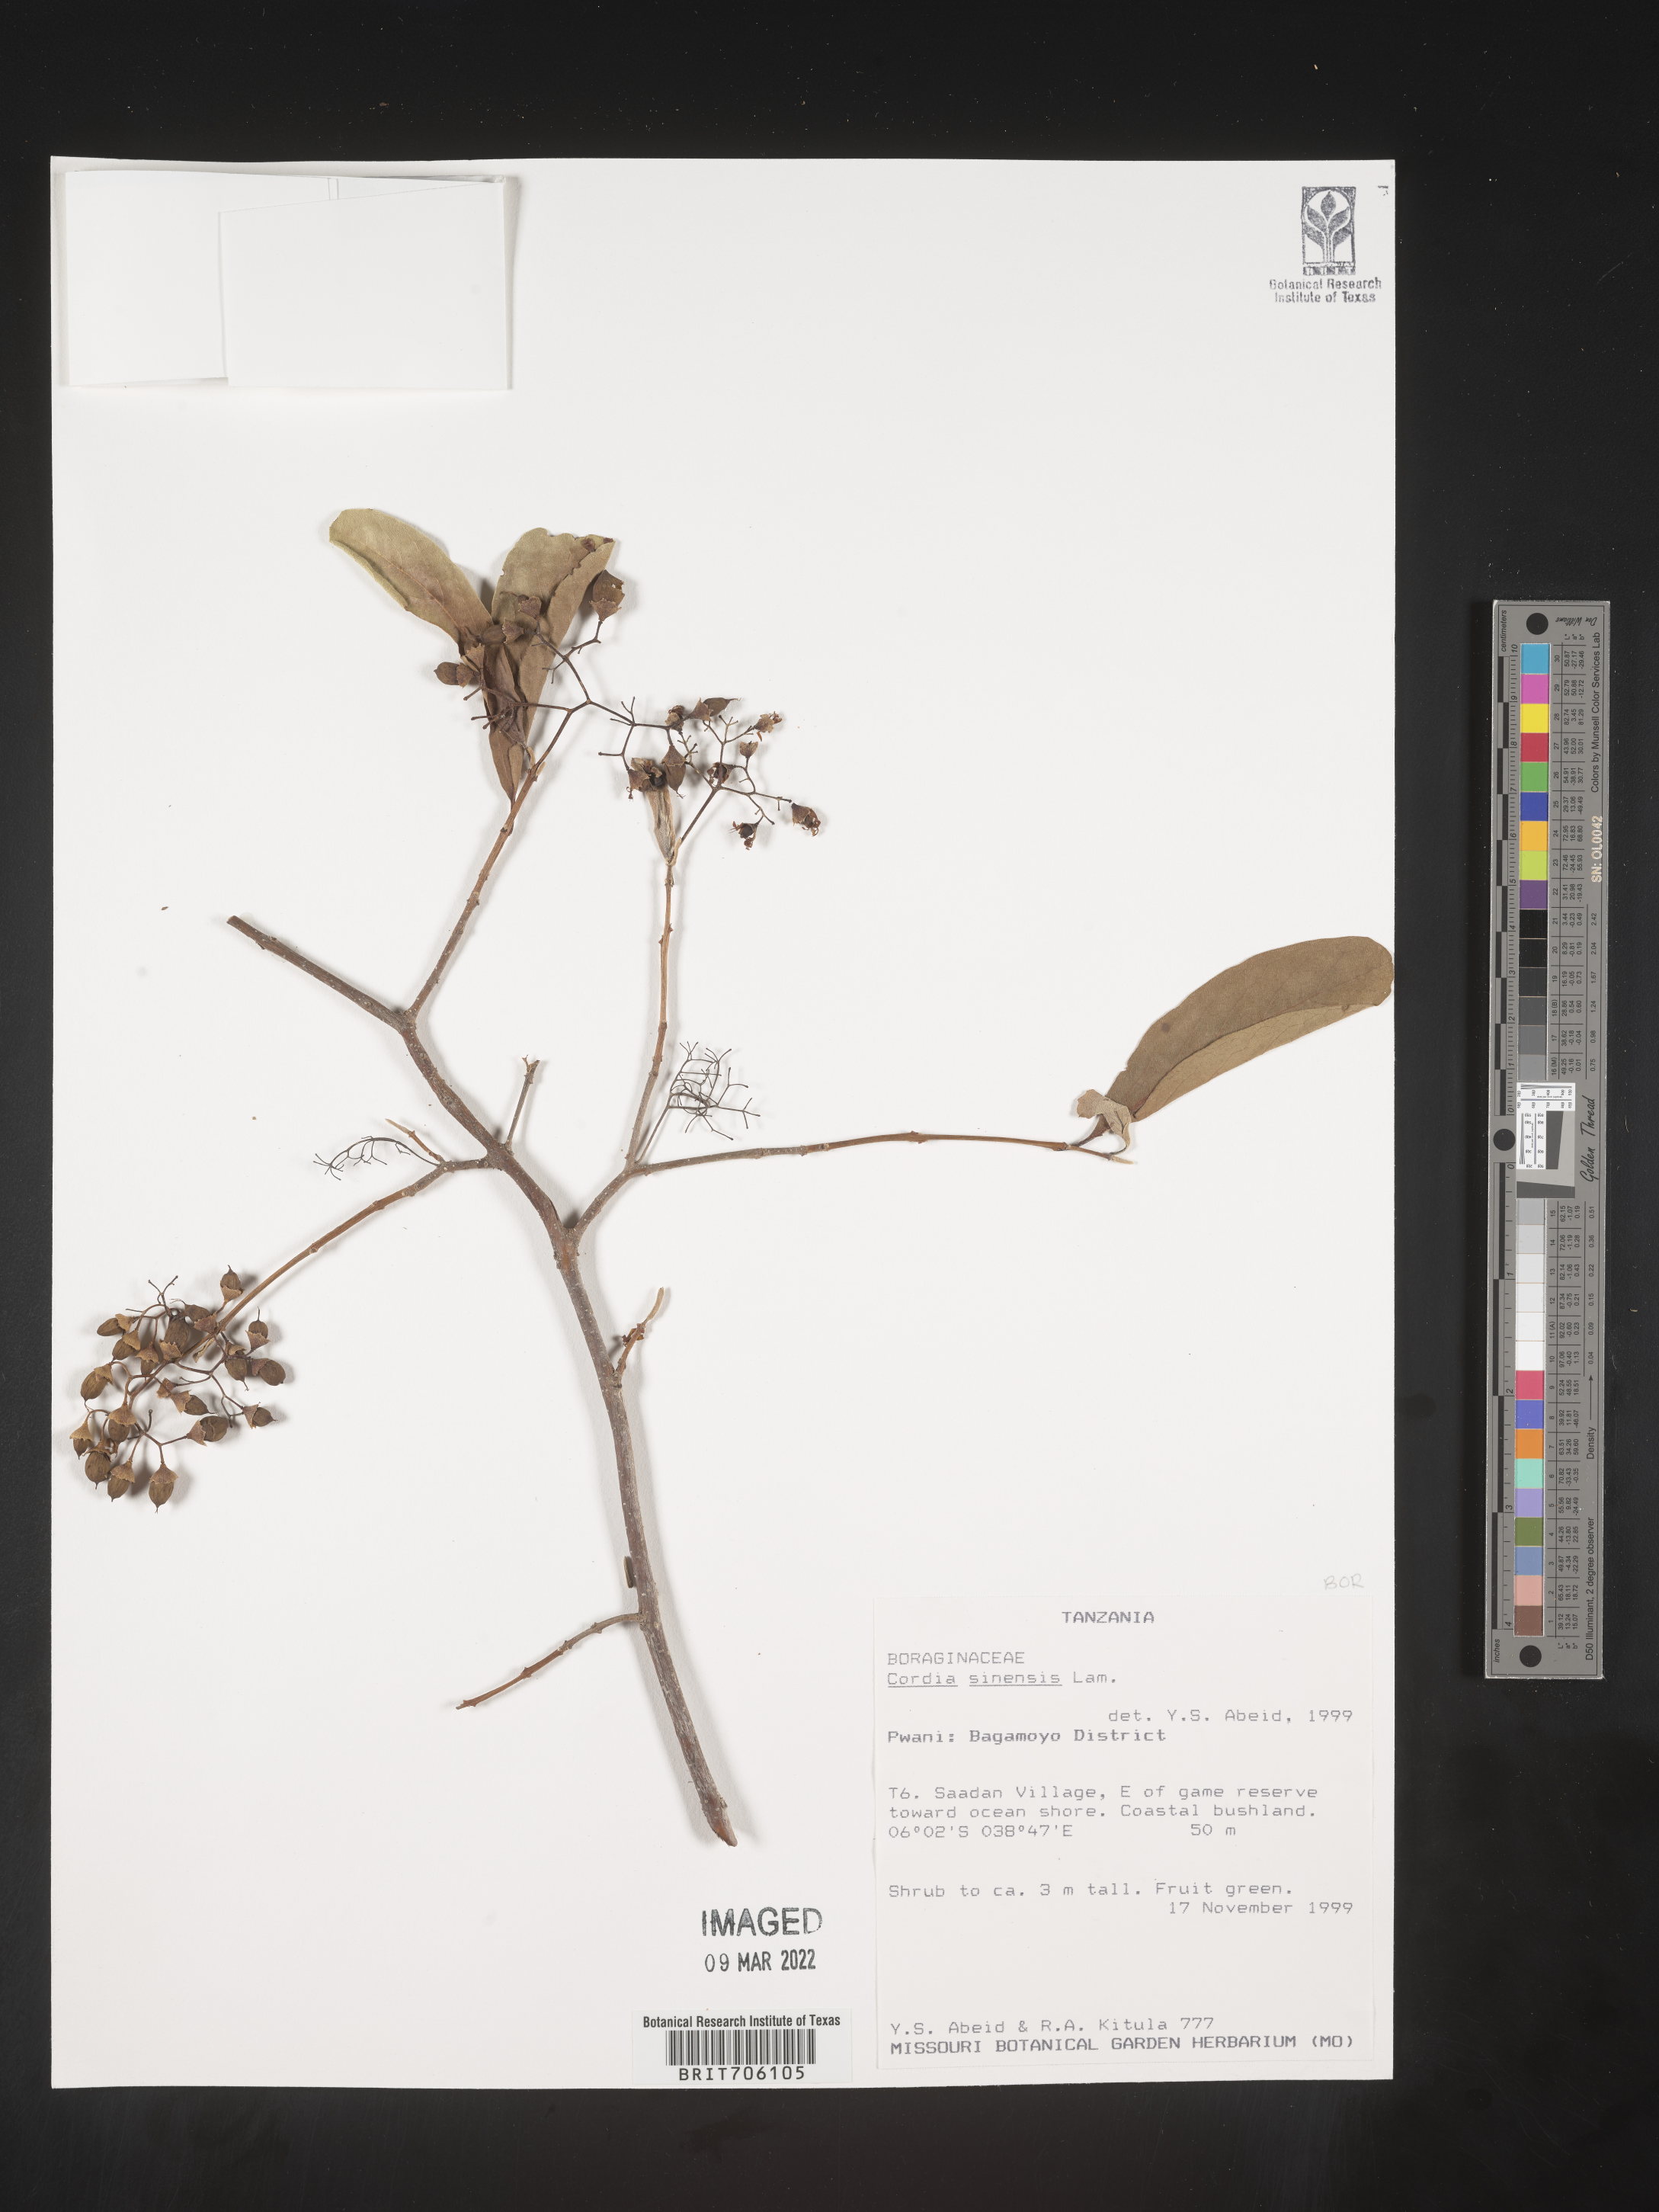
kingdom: Plantae
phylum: Tracheophyta
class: Magnoliopsida
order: Boraginales
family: Cordiaceae
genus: Cordia
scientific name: Cordia
